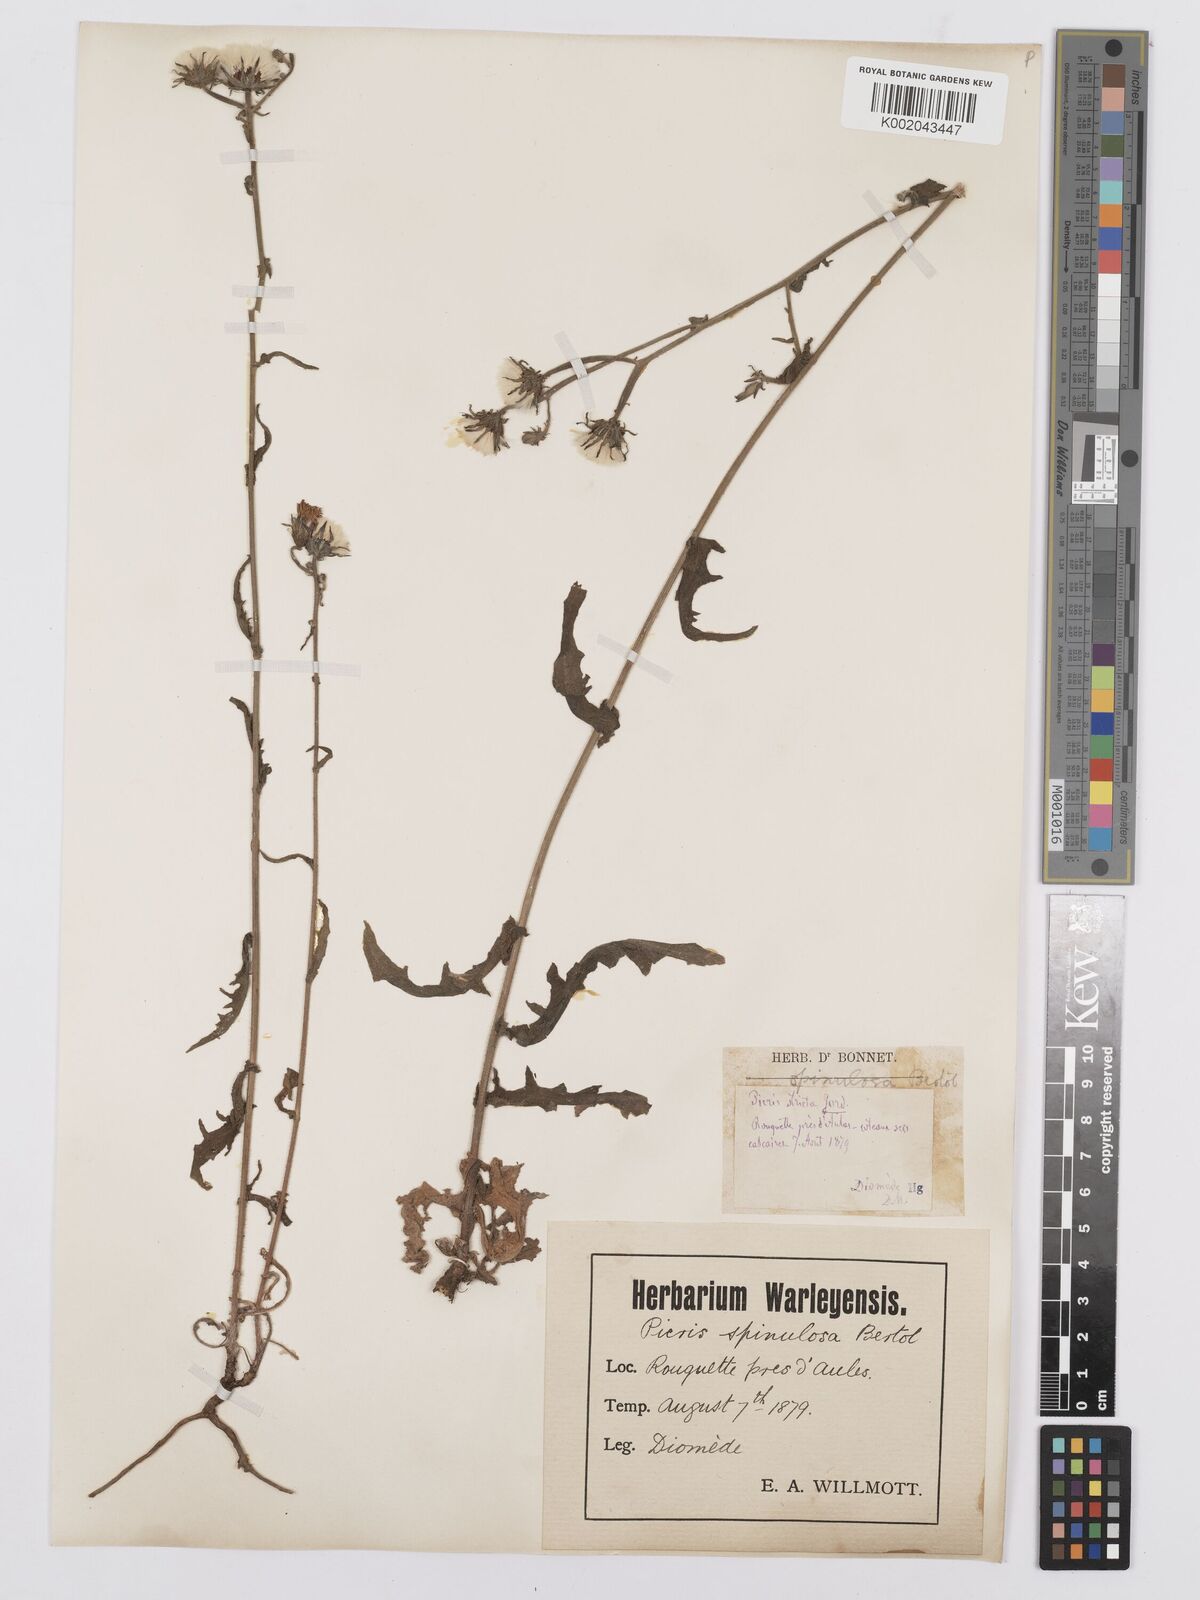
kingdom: Plantae
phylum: Tracheophyta
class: Magnoliopsida
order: Asterales
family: Asteraceae
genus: Picris
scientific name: Picris hieracioides
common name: Hawkweed oxtongue
